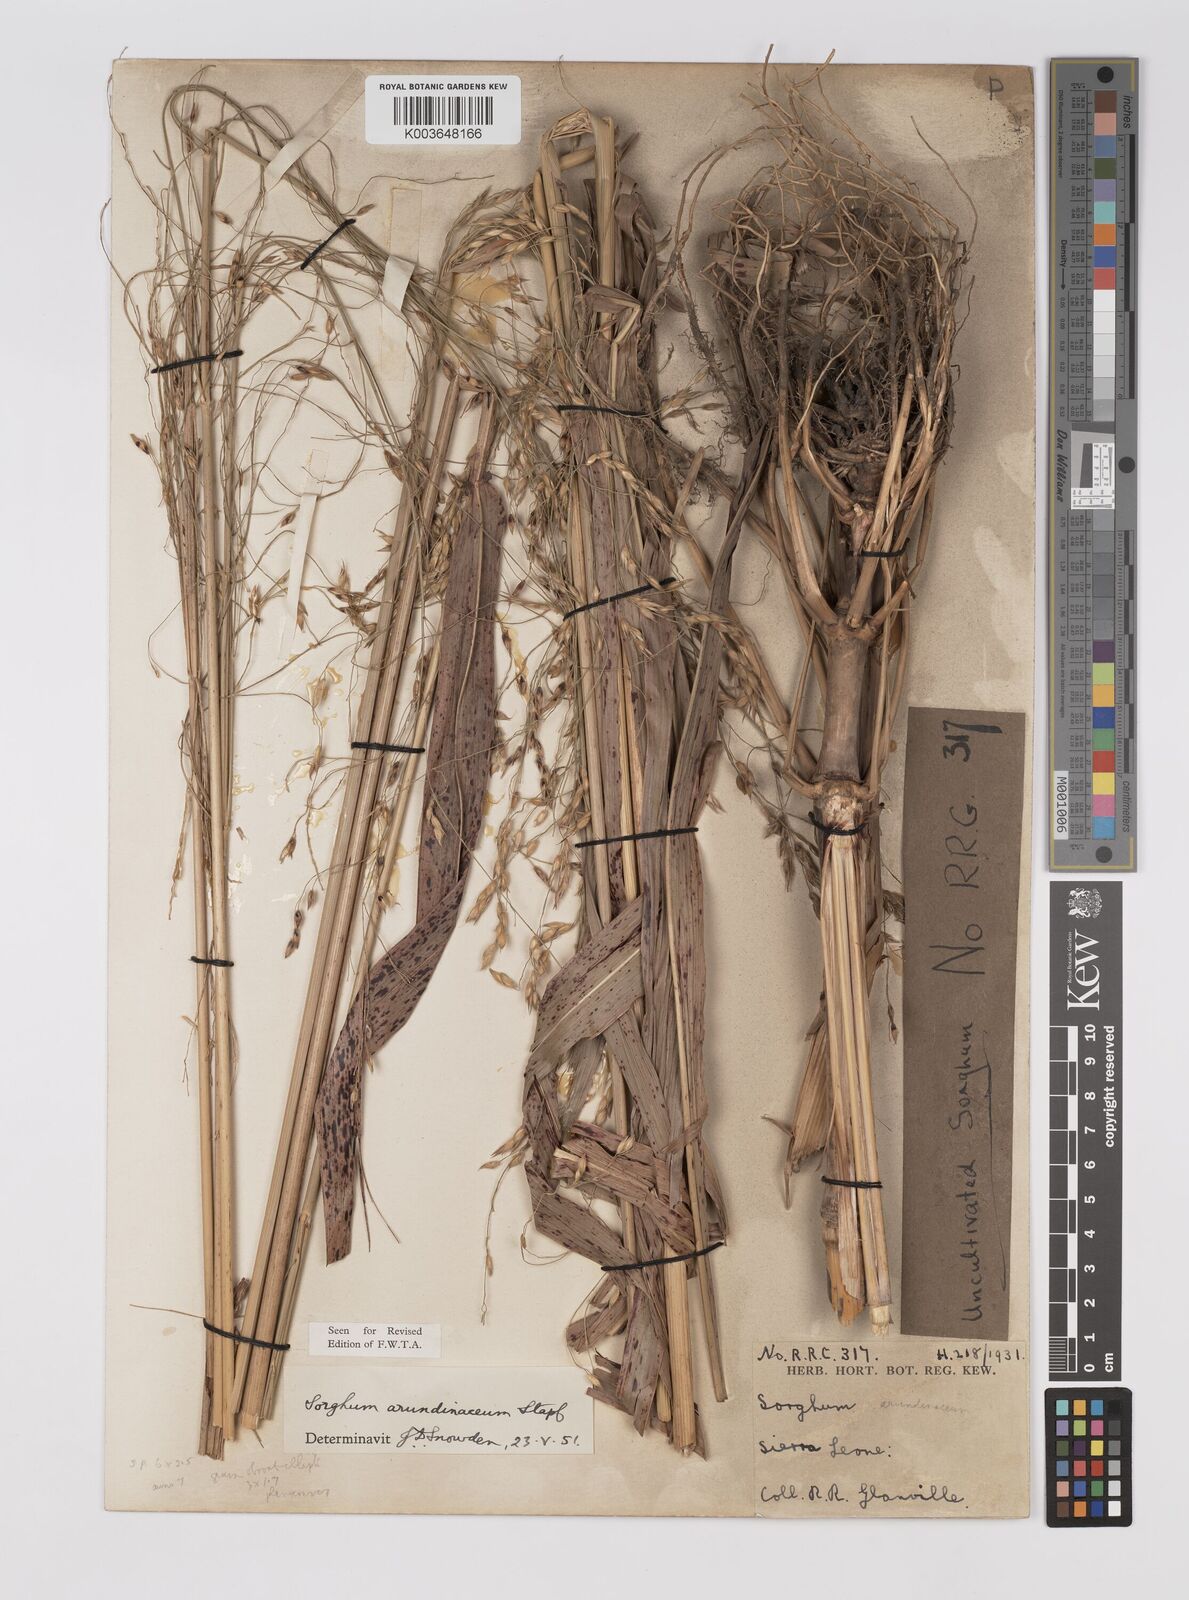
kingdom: Plantae
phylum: Tracheophyta
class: Liliopsida
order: Poales
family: Poaceae
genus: Sorghum
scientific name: Sorghum arundinaceum
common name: Sorghum
